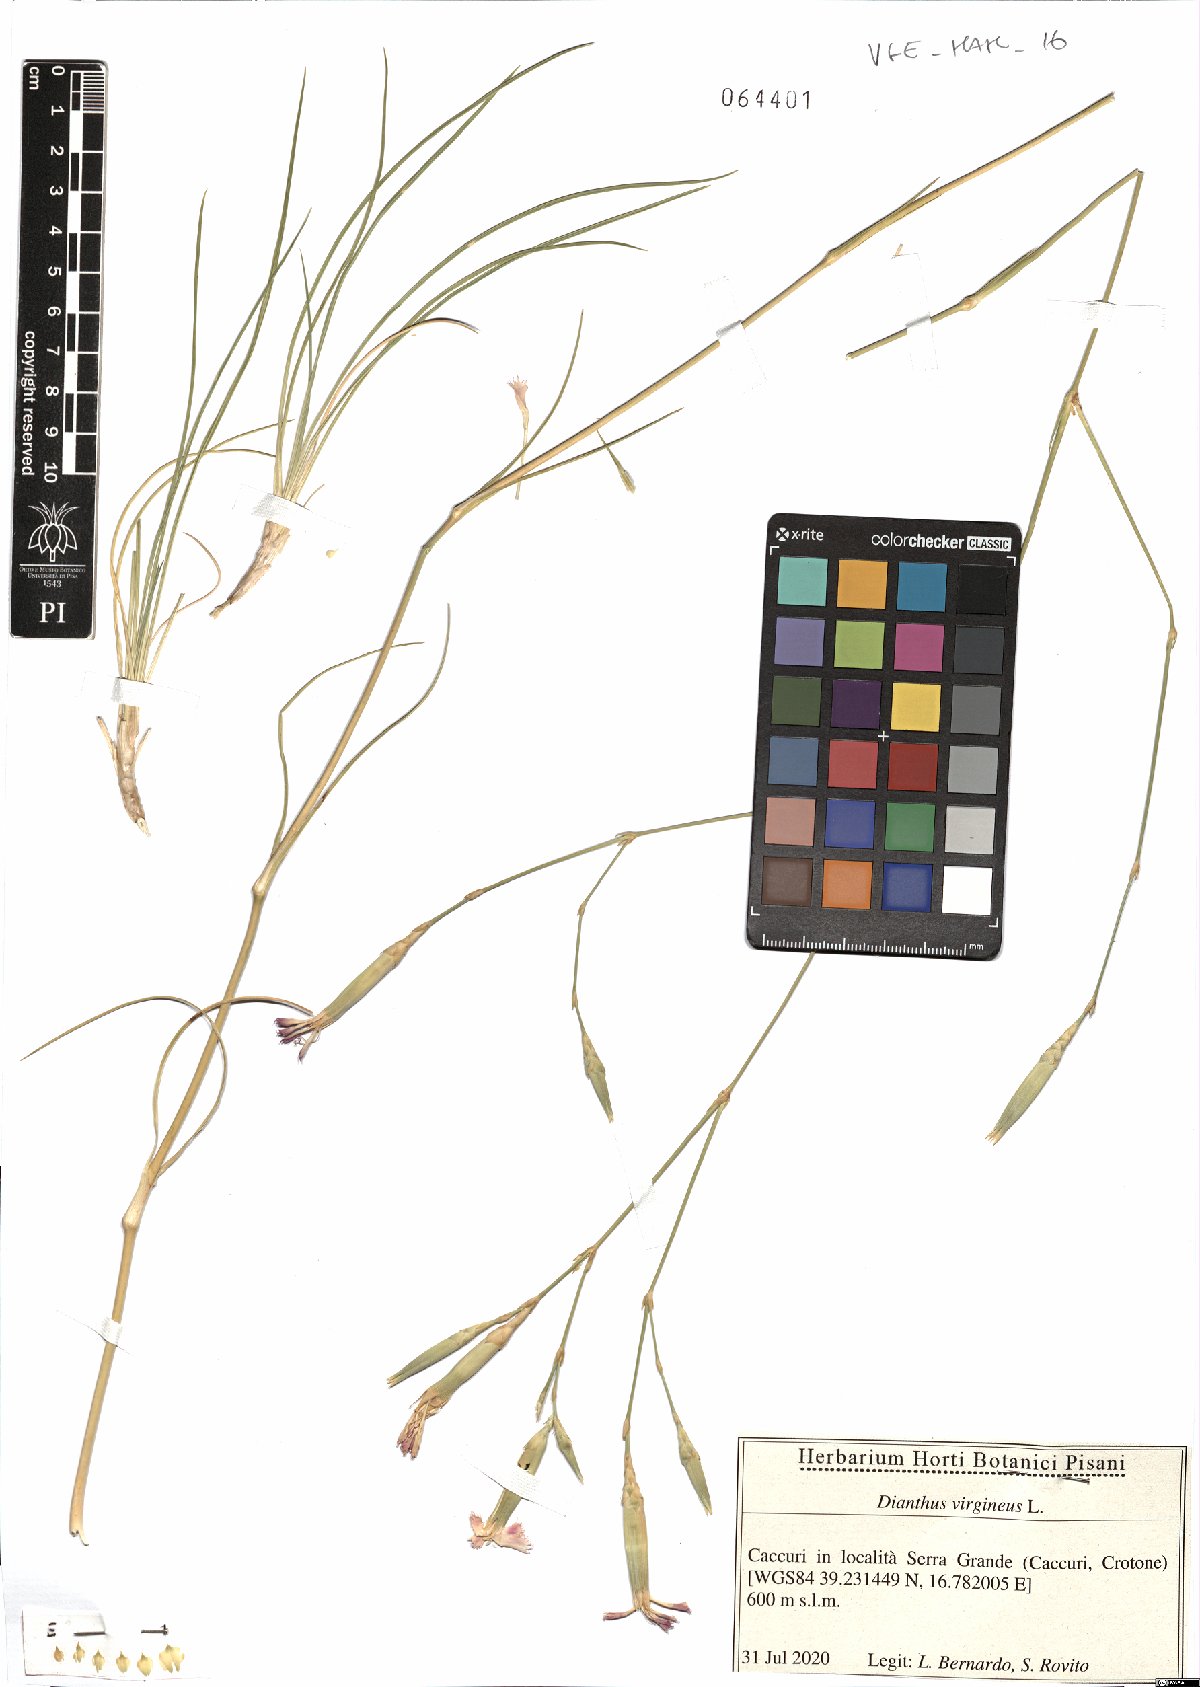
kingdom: Plantae
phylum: Tracheophyta
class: Magnoliopsida
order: Caryophyllales
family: Caryophyllaceae
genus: Dianthus
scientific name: Dianthus virgineus
